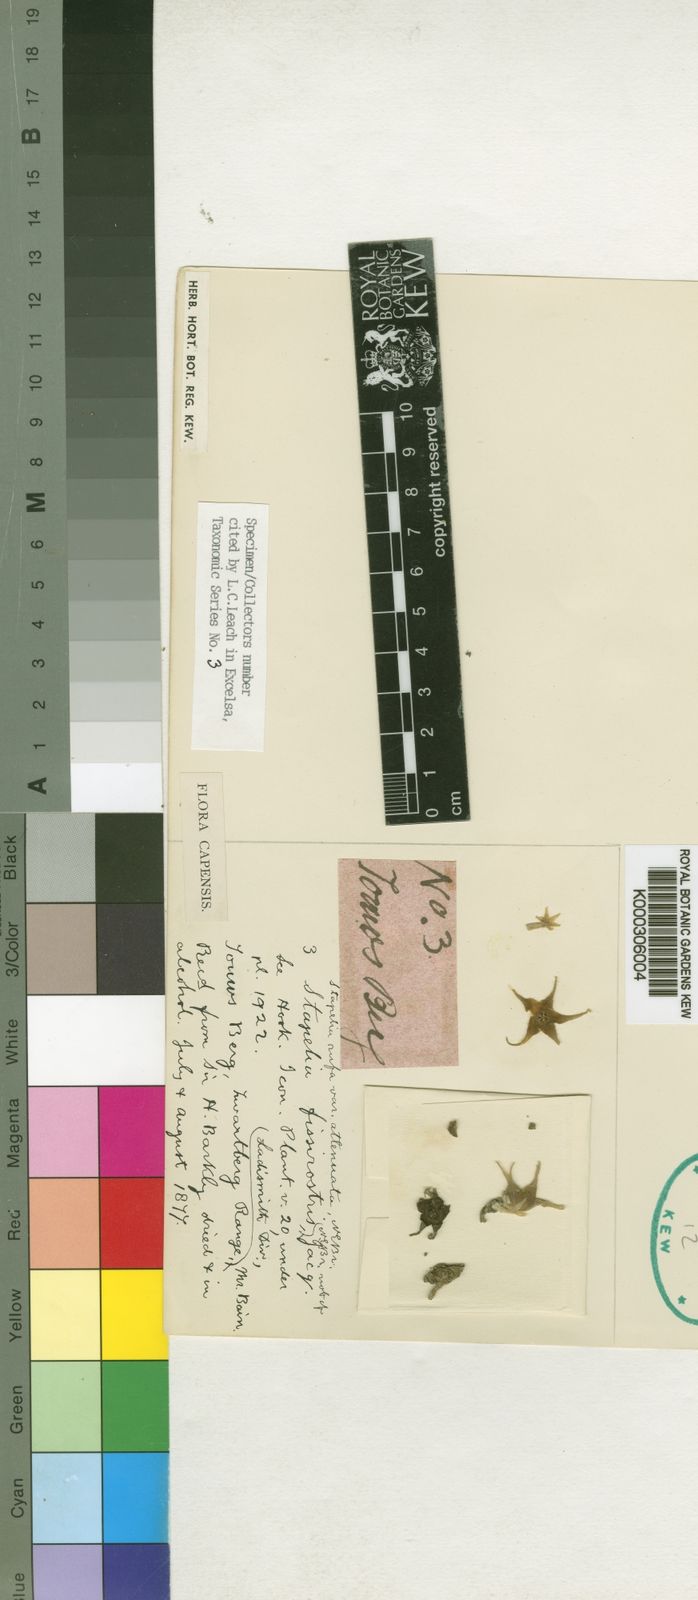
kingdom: Plantae
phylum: Tracheophyta
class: Magnoliopsida
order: Gentianales
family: Apocynaceae
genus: Ceropegia
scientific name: Ceropegia rufa
